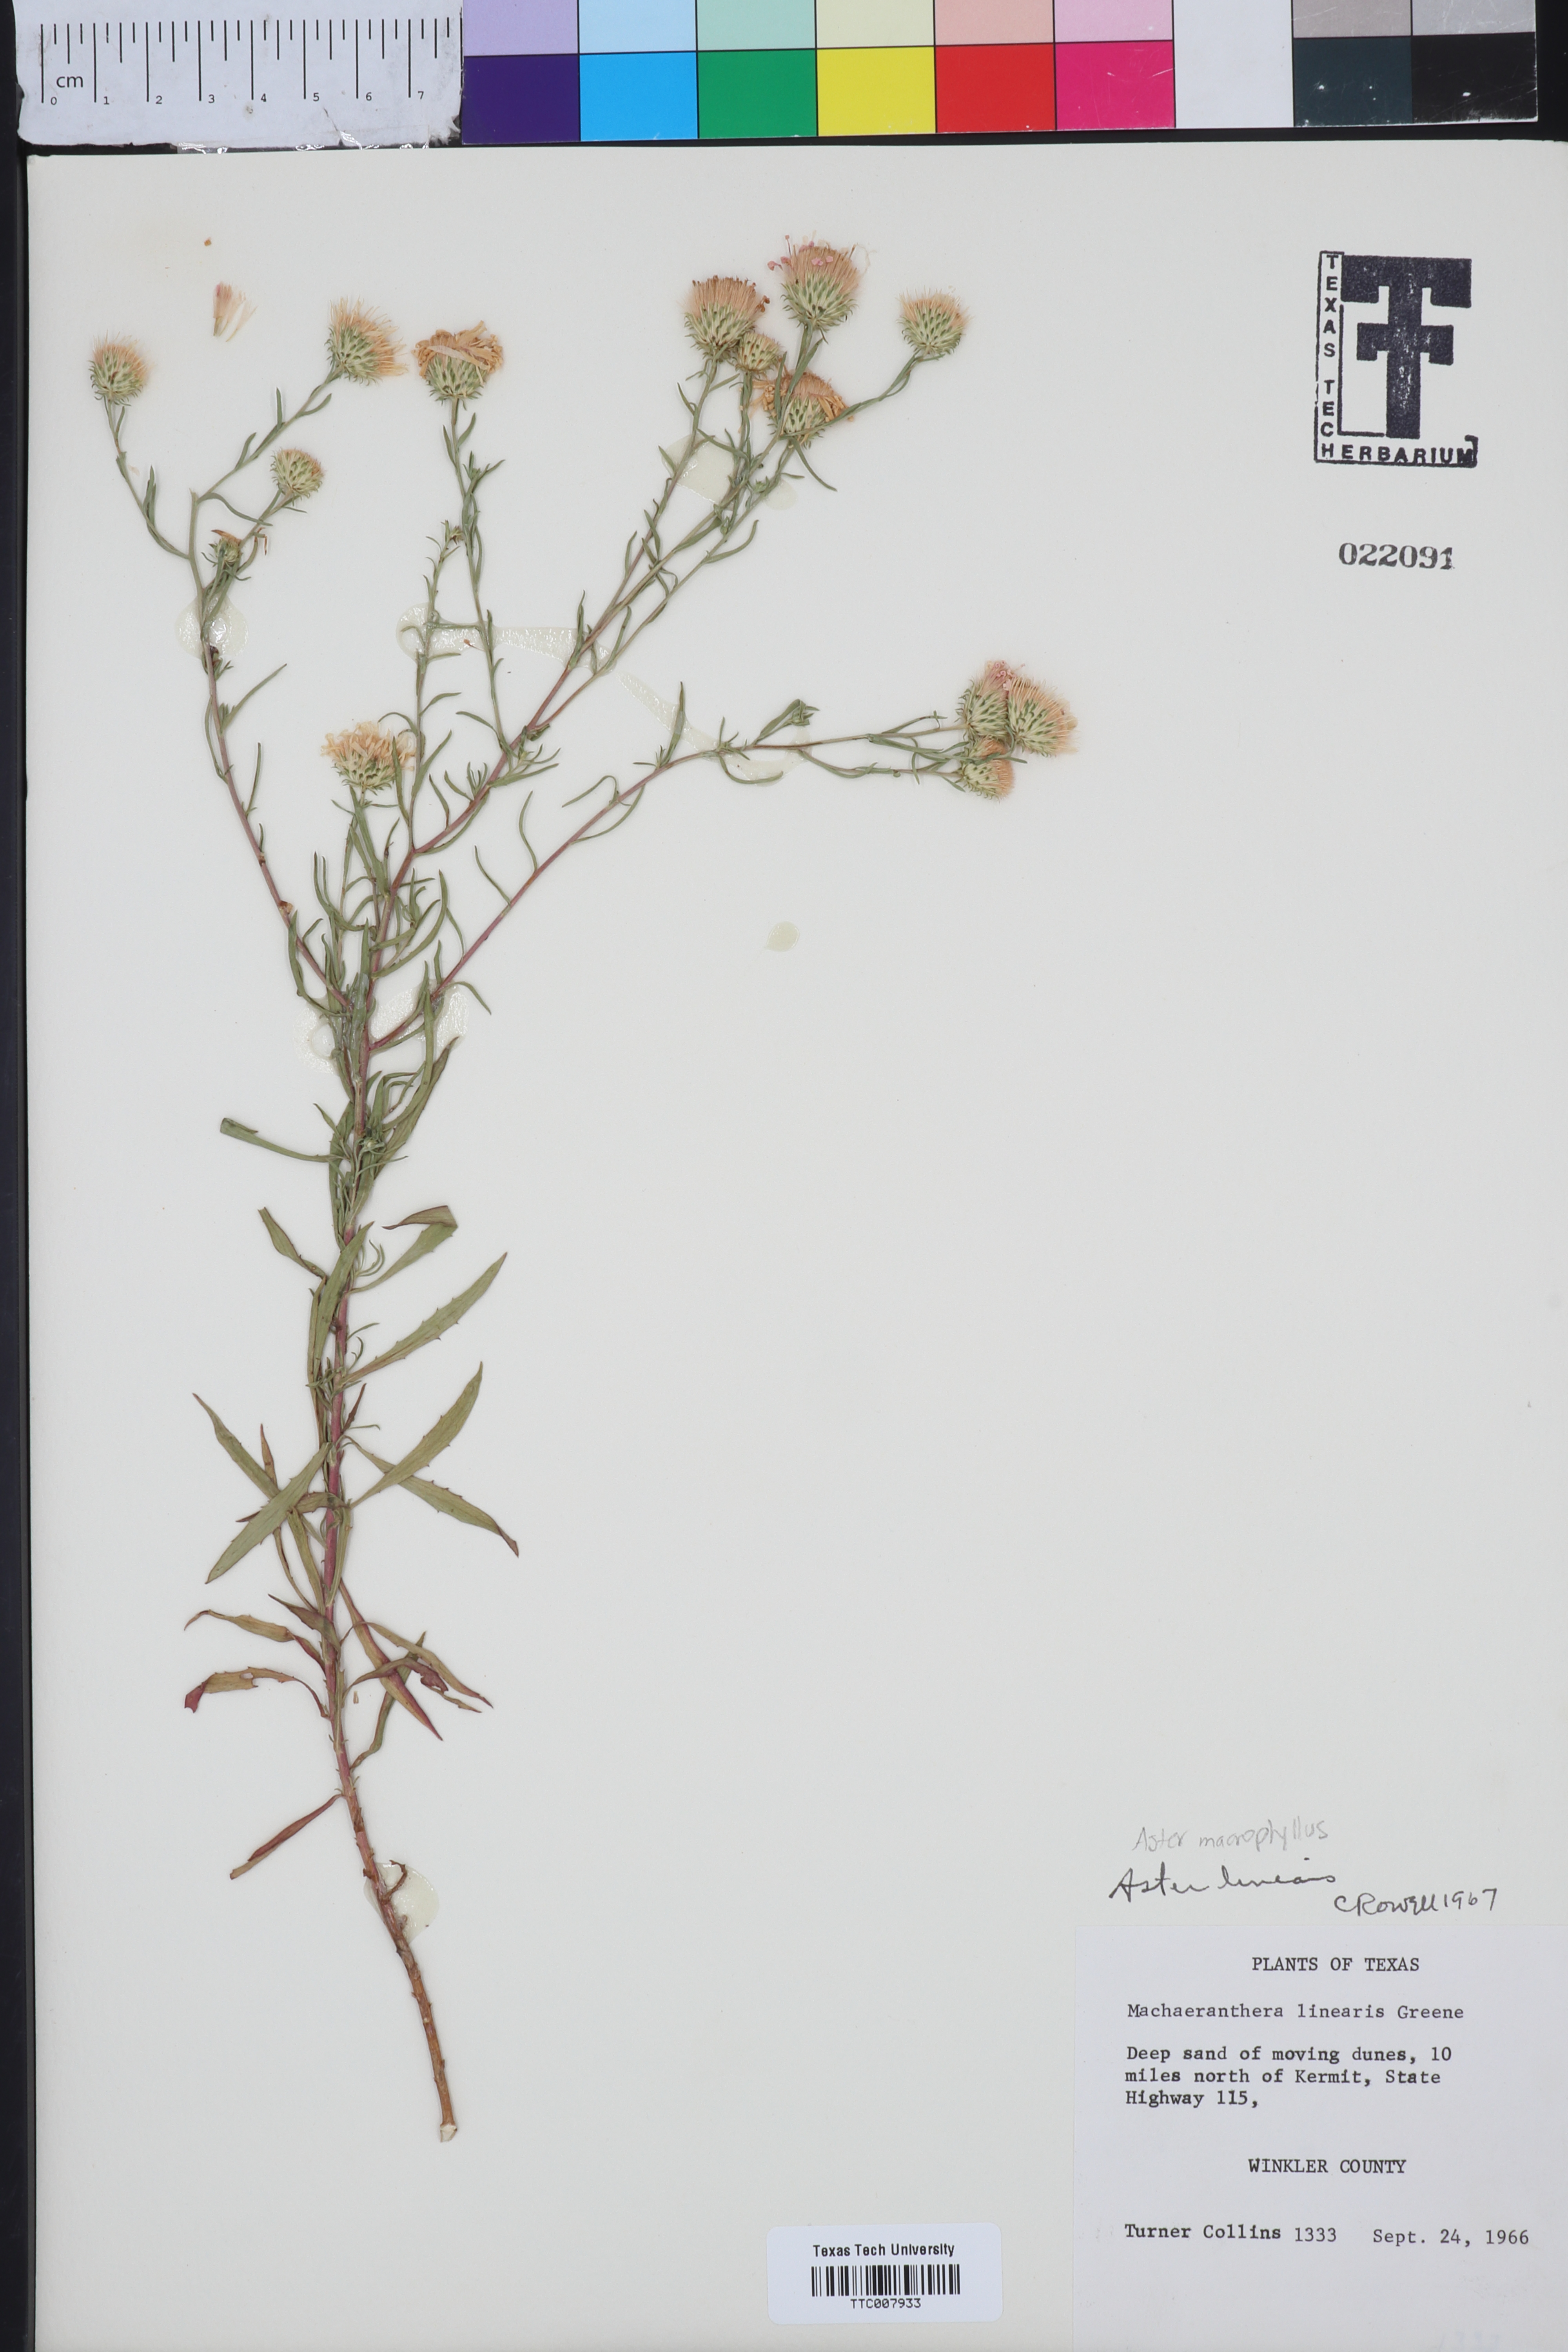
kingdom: Plantae
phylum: Tracheophyta
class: Magnoliopsida
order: Asterales
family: Asteraceae
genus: Dieteria
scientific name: Dieteria canescens
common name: Hoary-aster
